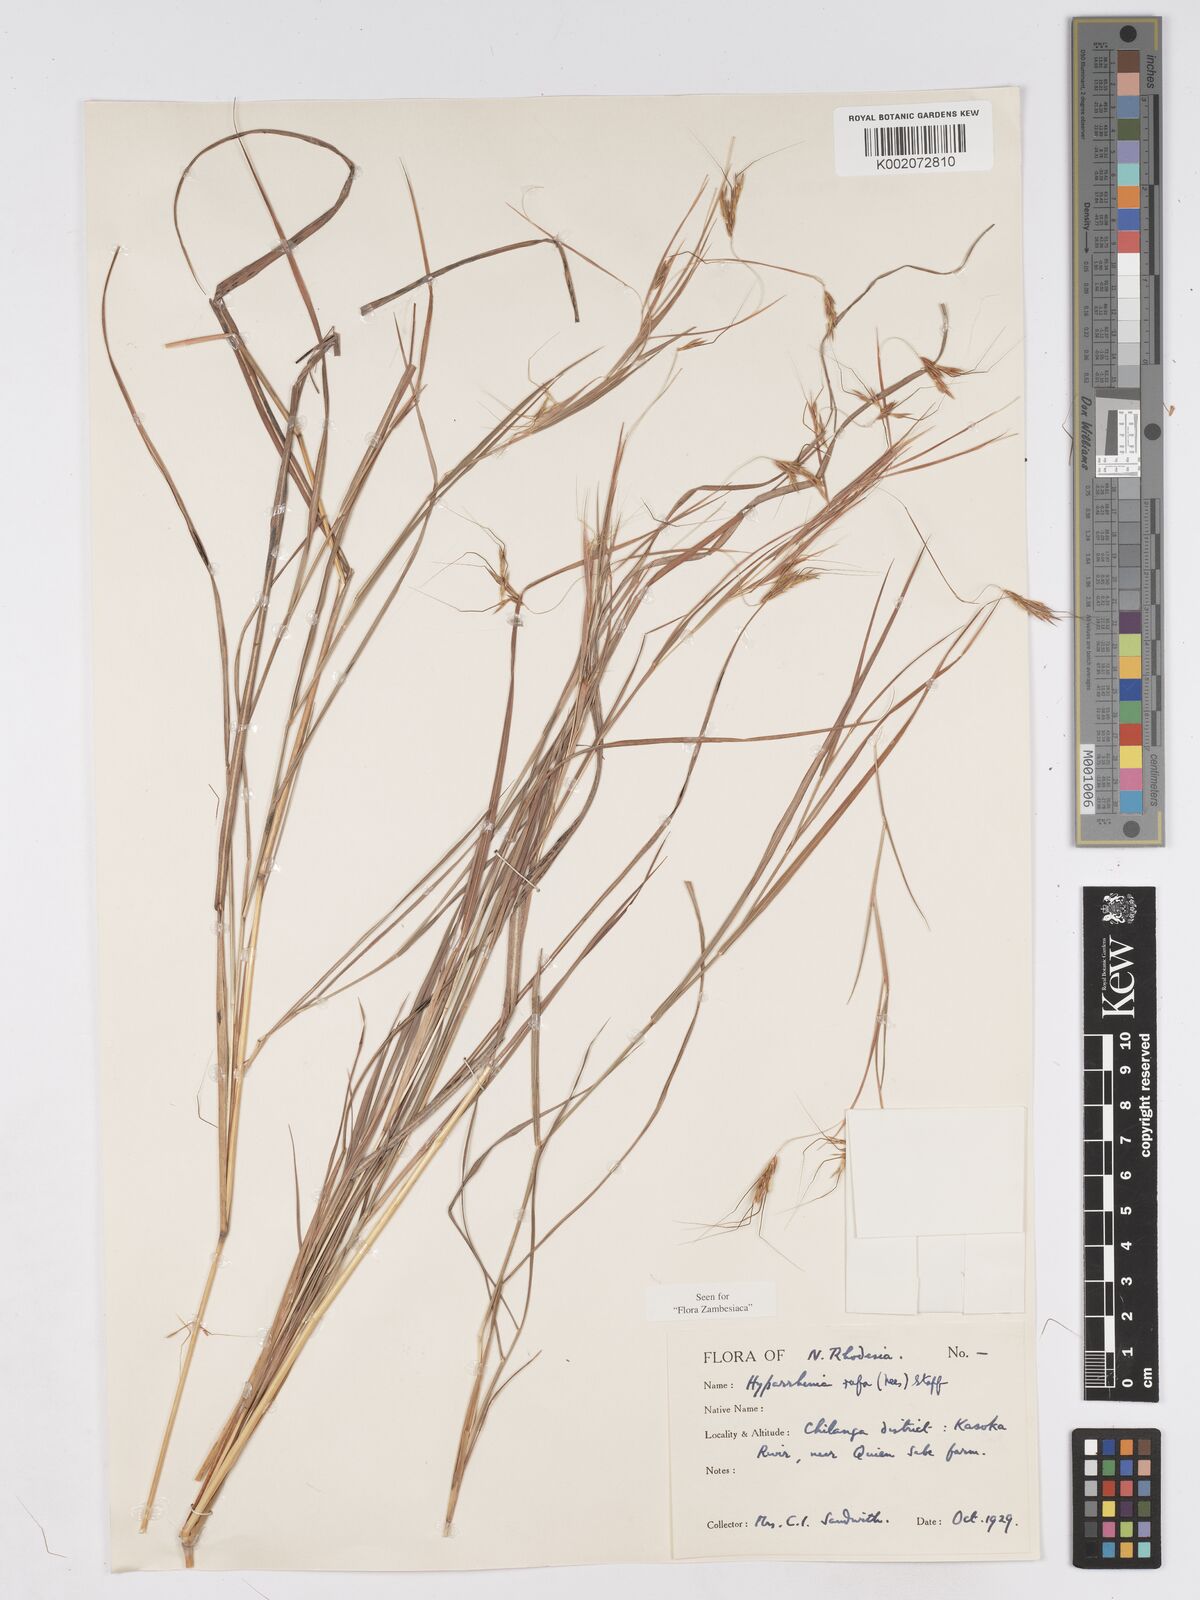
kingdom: Plantae
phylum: Tracheophyta
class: Liliopsida
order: Poales
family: Poaceae
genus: Hyparrhenia
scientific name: Hyparrhenia rufa
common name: Jaraguagrass
